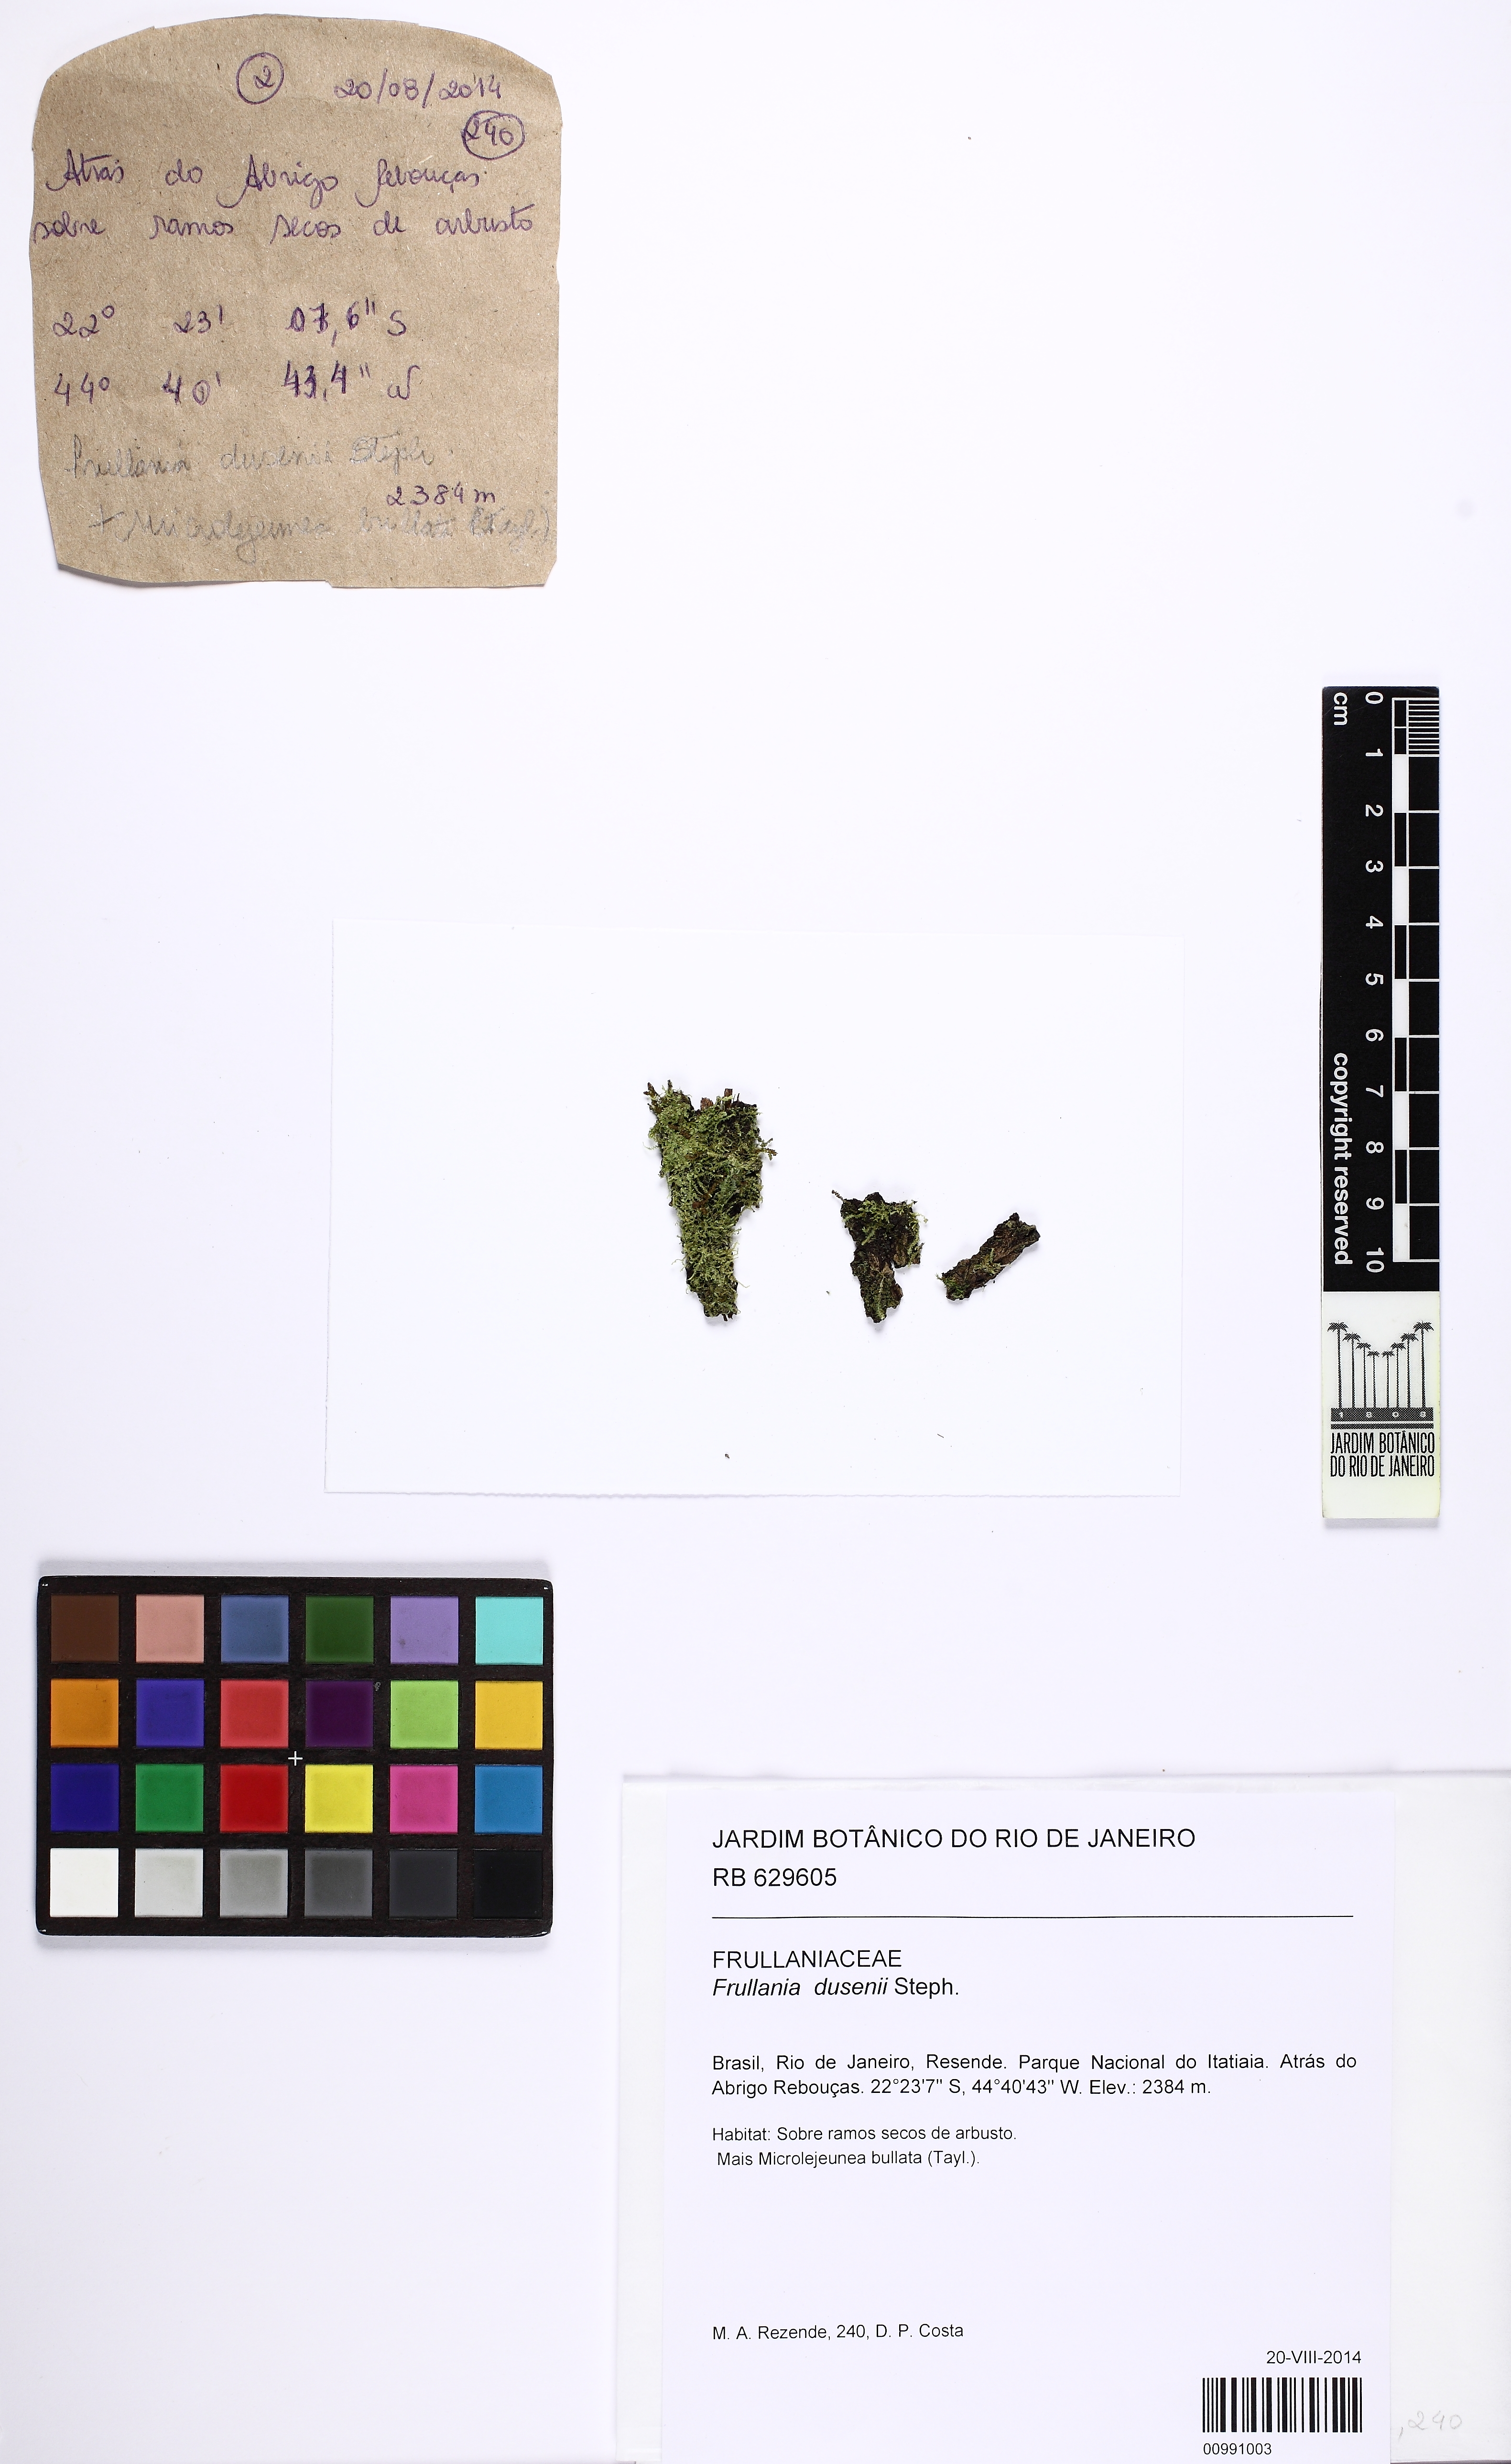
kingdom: Plantae
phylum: Marchantiophyta
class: Jungermanniopsida
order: Porellales
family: Frullaniaceae
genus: Frullania
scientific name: Frullania dusenii
